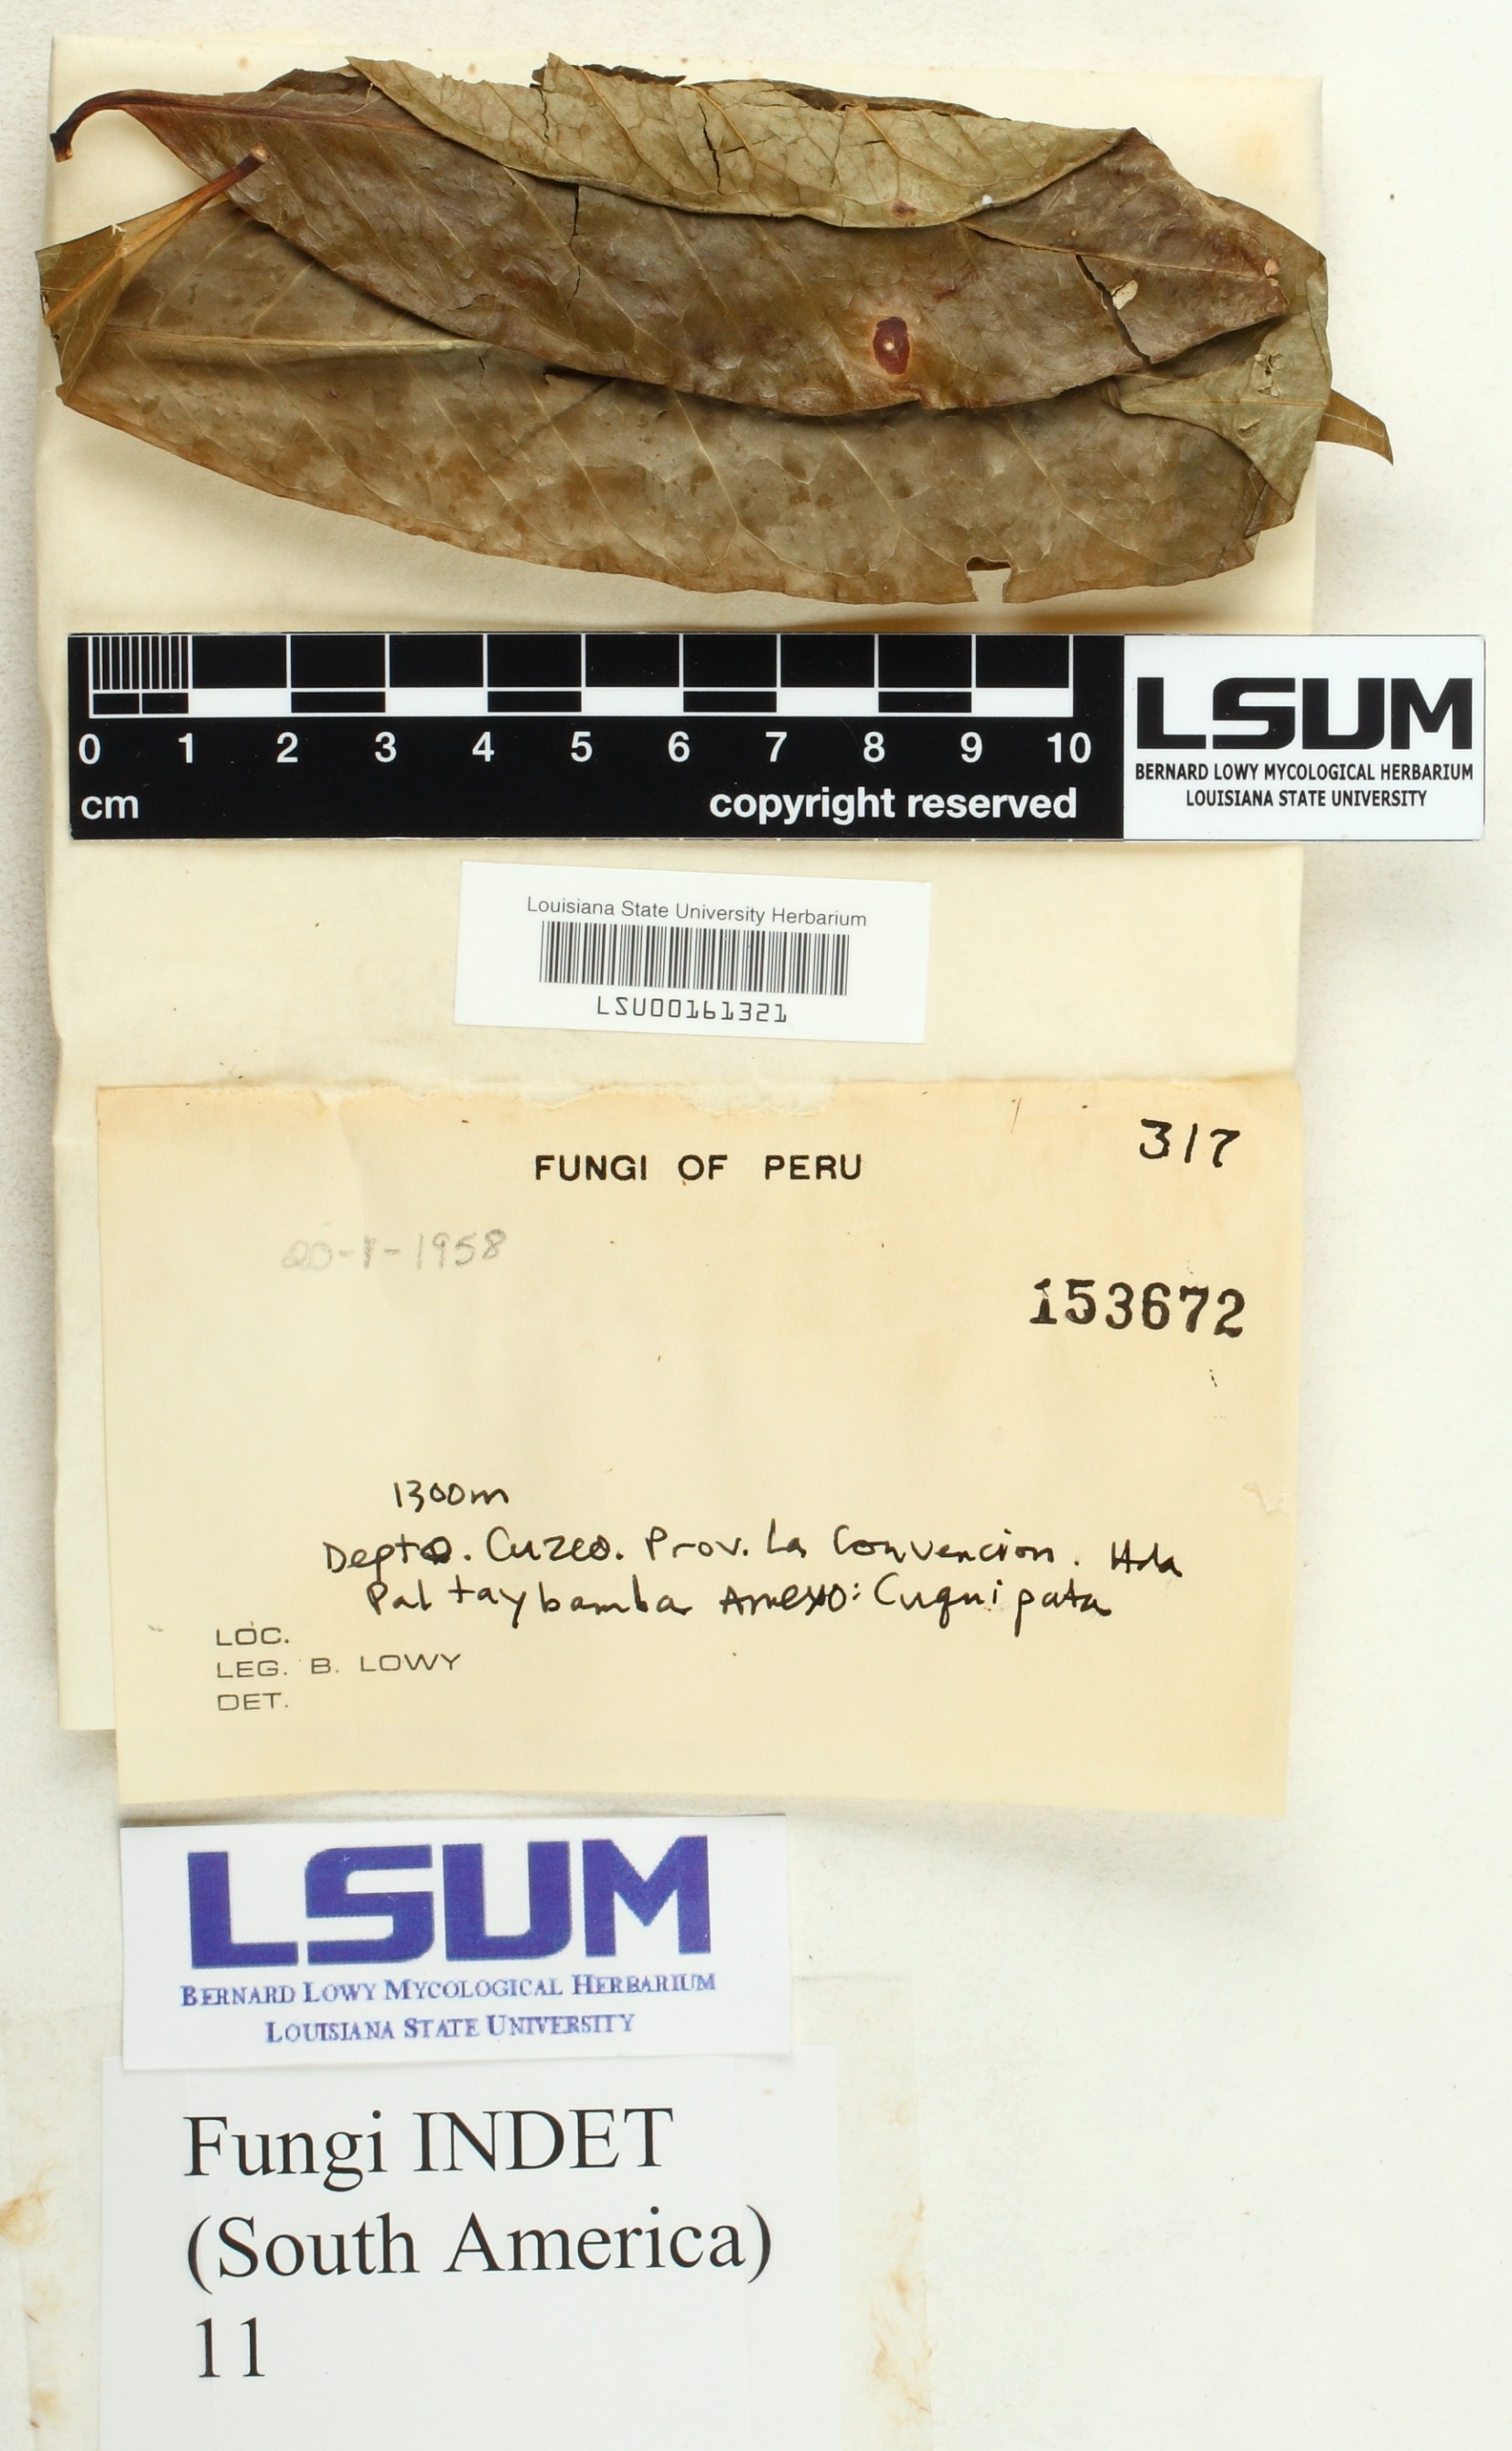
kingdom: Fungi
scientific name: Fungi
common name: Fungi
